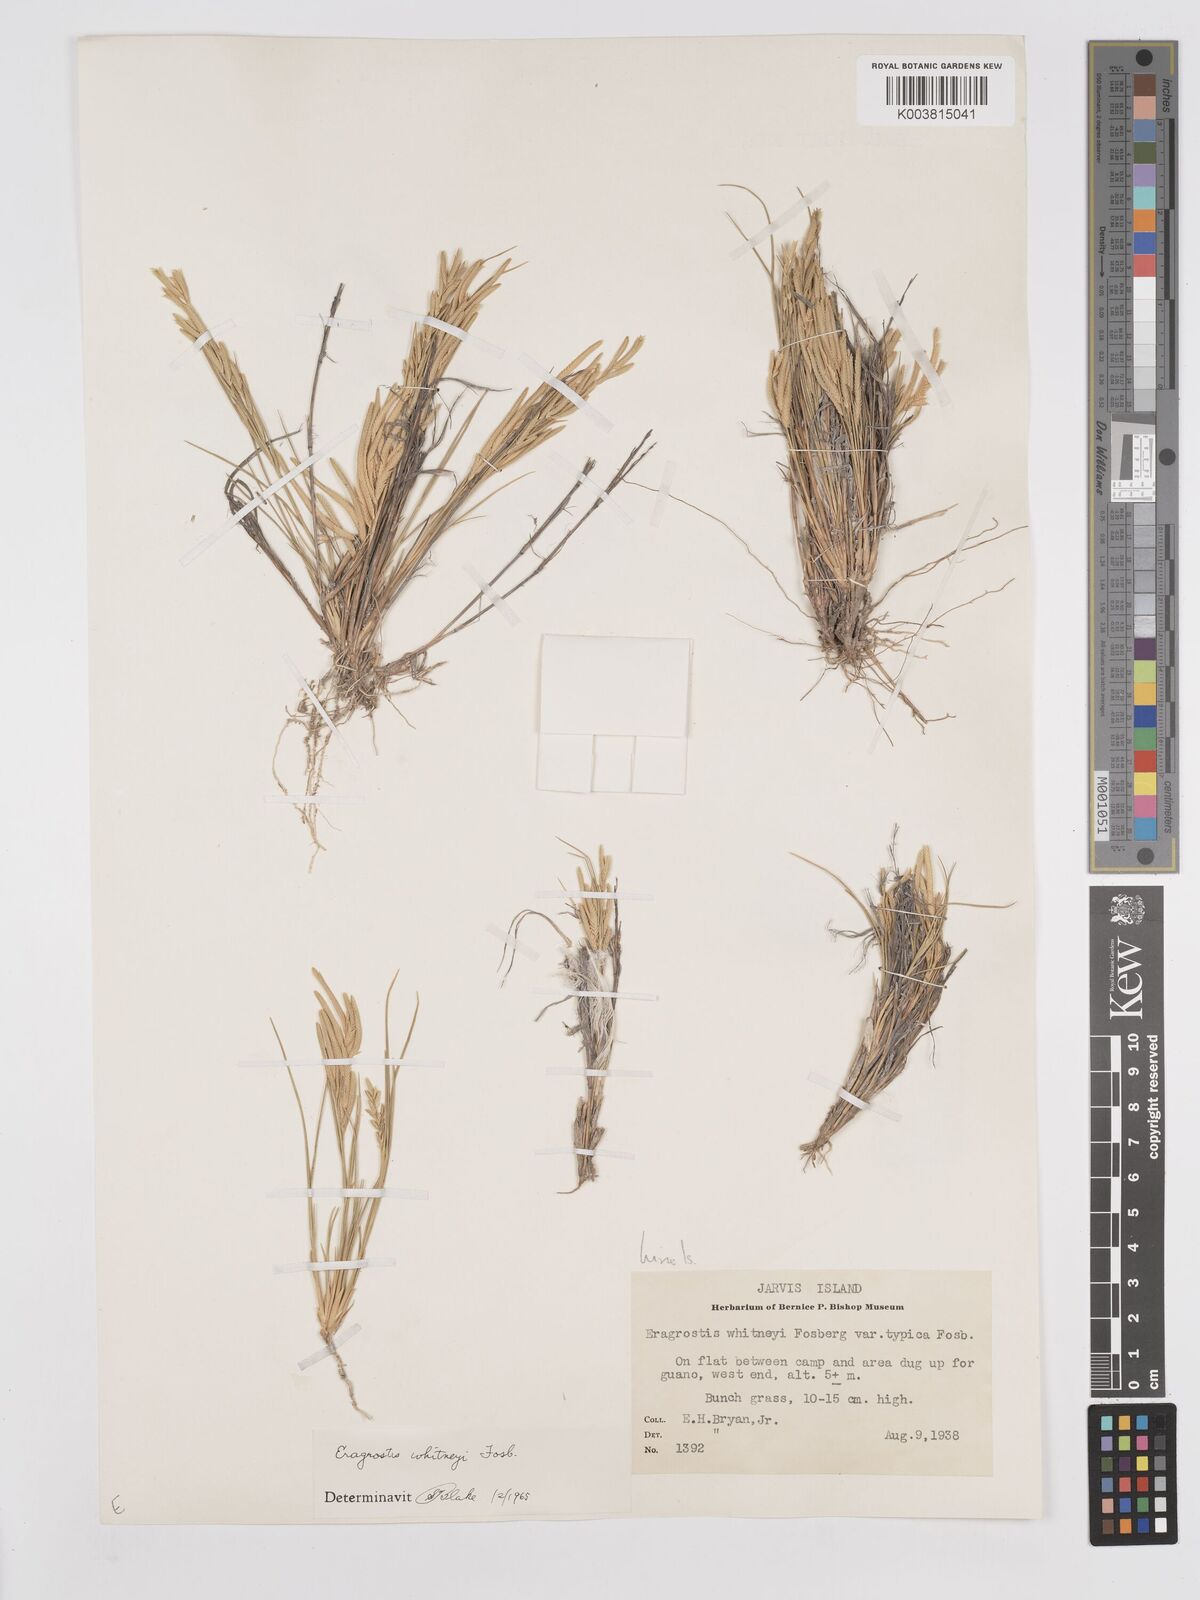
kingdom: Plantae
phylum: Tracheophyta
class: Liliopsida
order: Poales
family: Poaceae
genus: Eragrostis
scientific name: Eragrostis paupera
